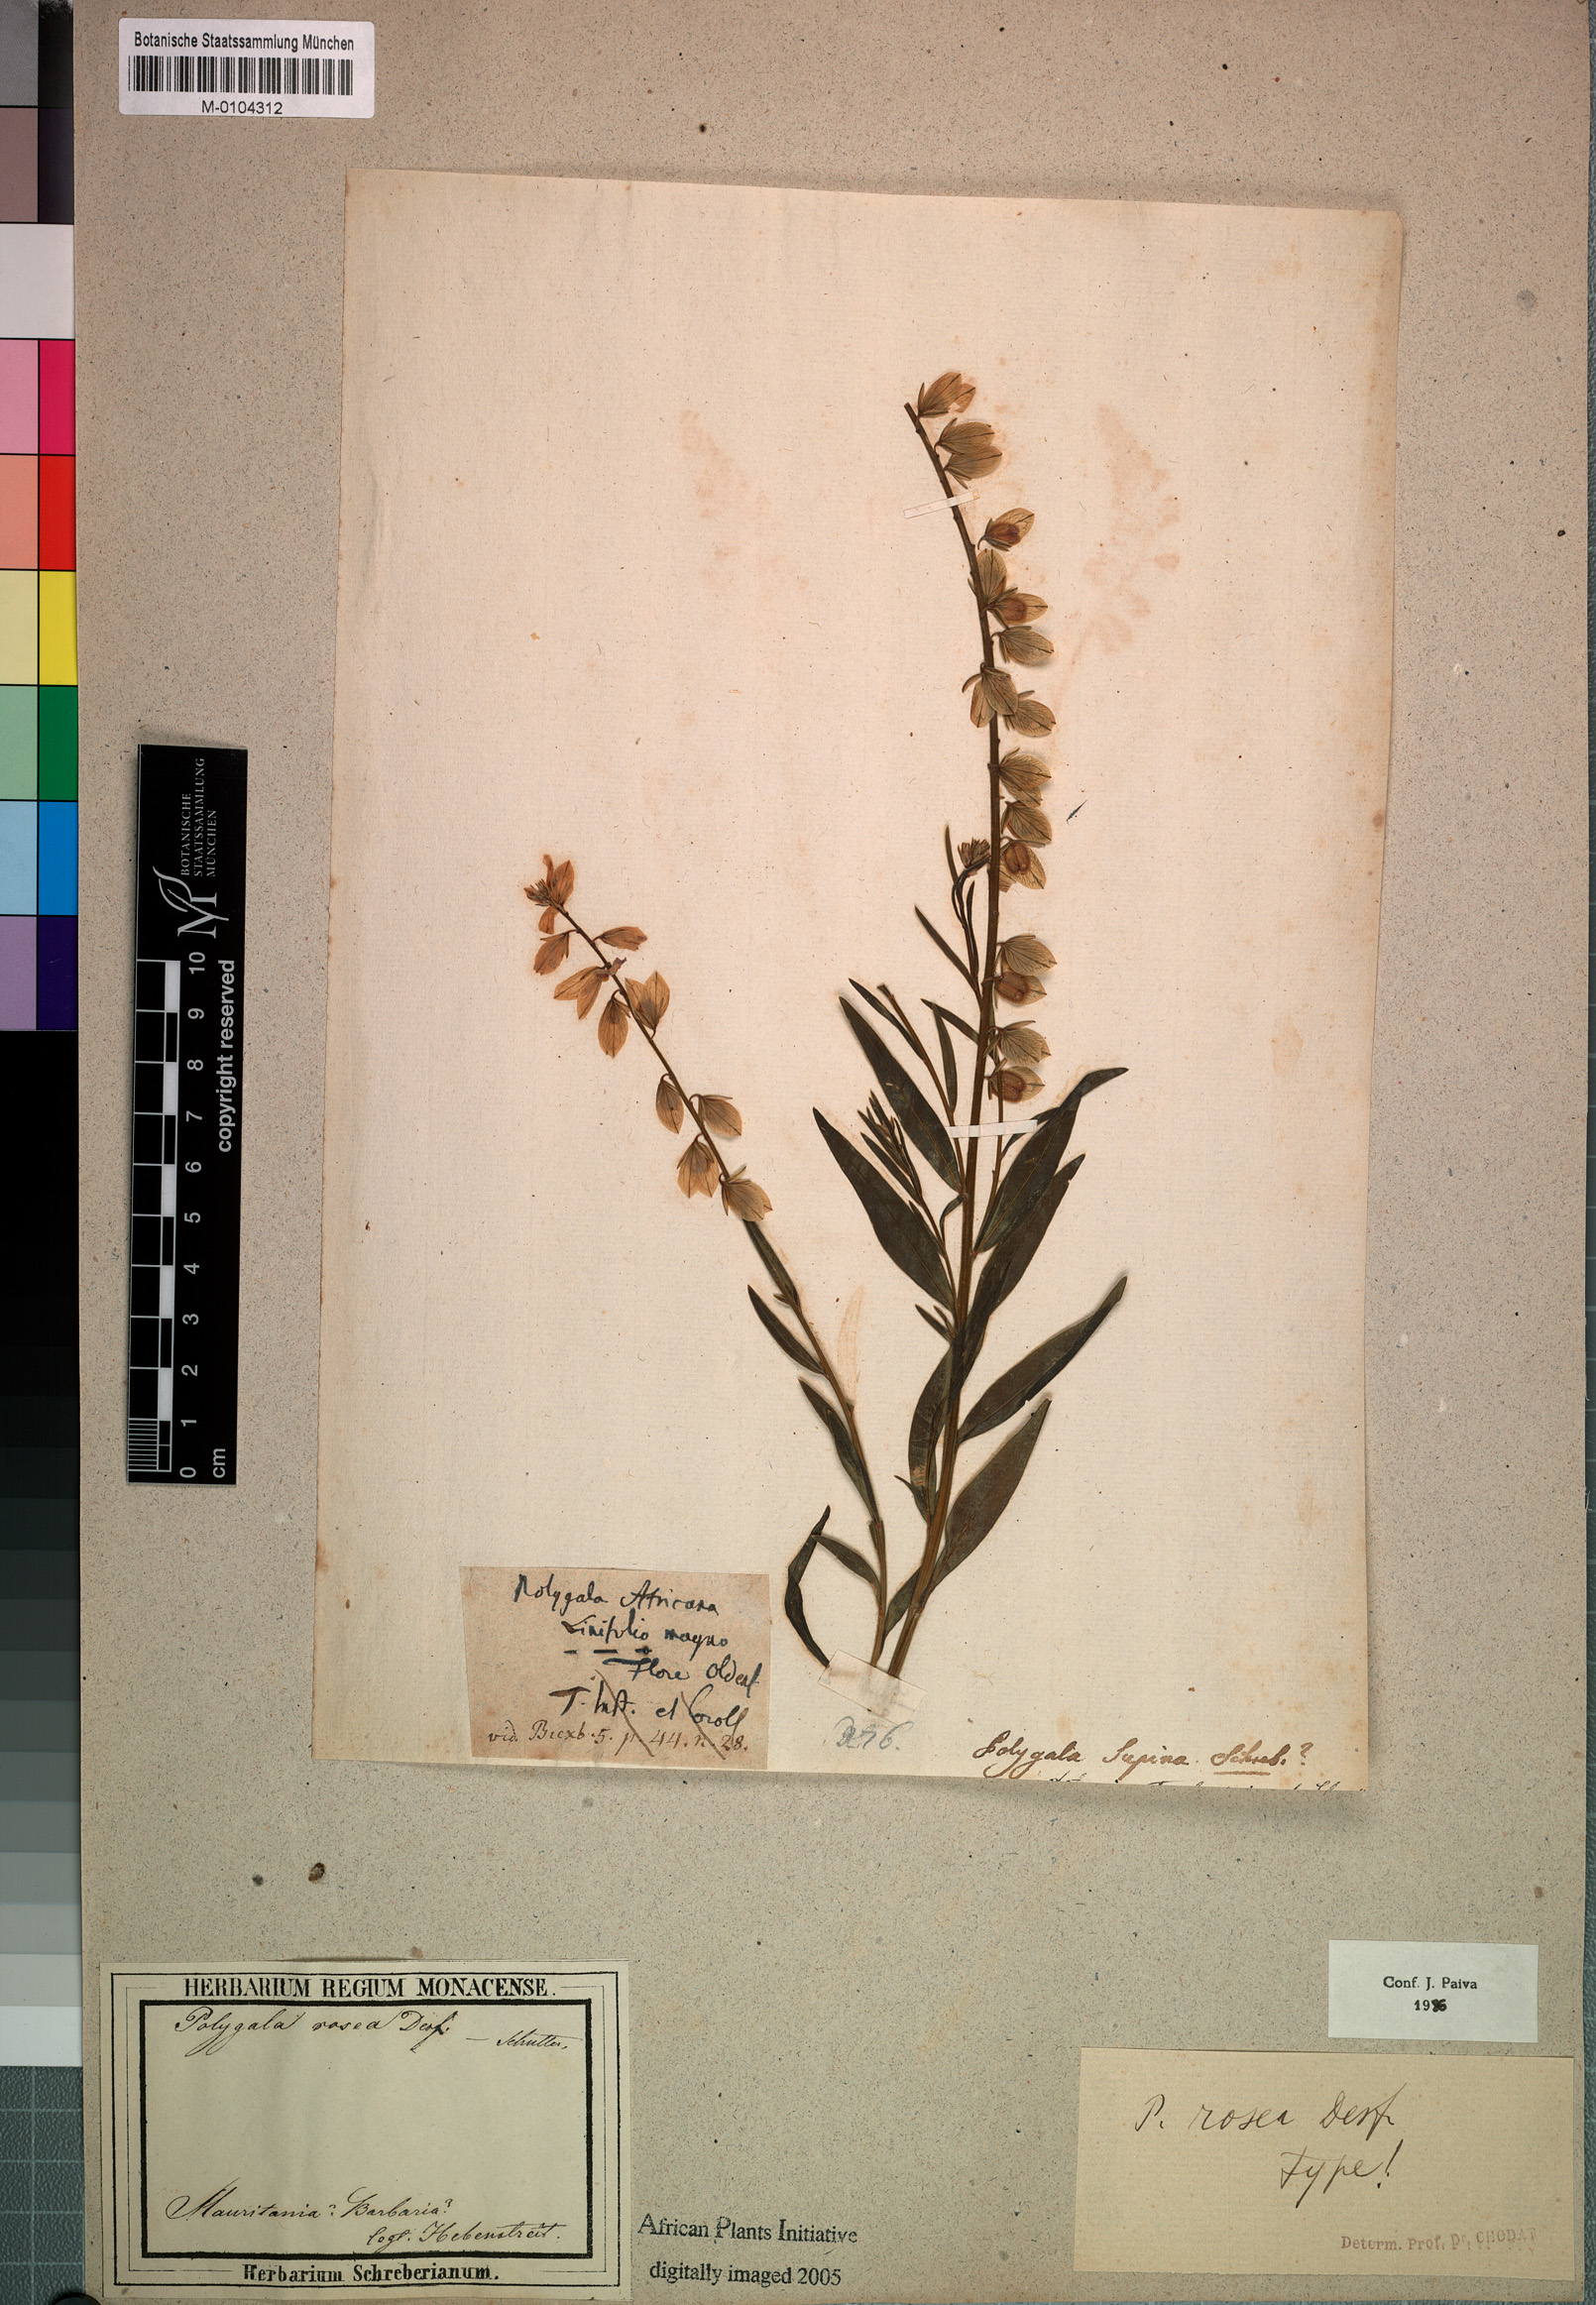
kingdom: Plantae
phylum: Tracheophyta
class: Magnoliopsida
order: Fabales
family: Polygalaceae
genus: Polygala
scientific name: Polygala rosea
